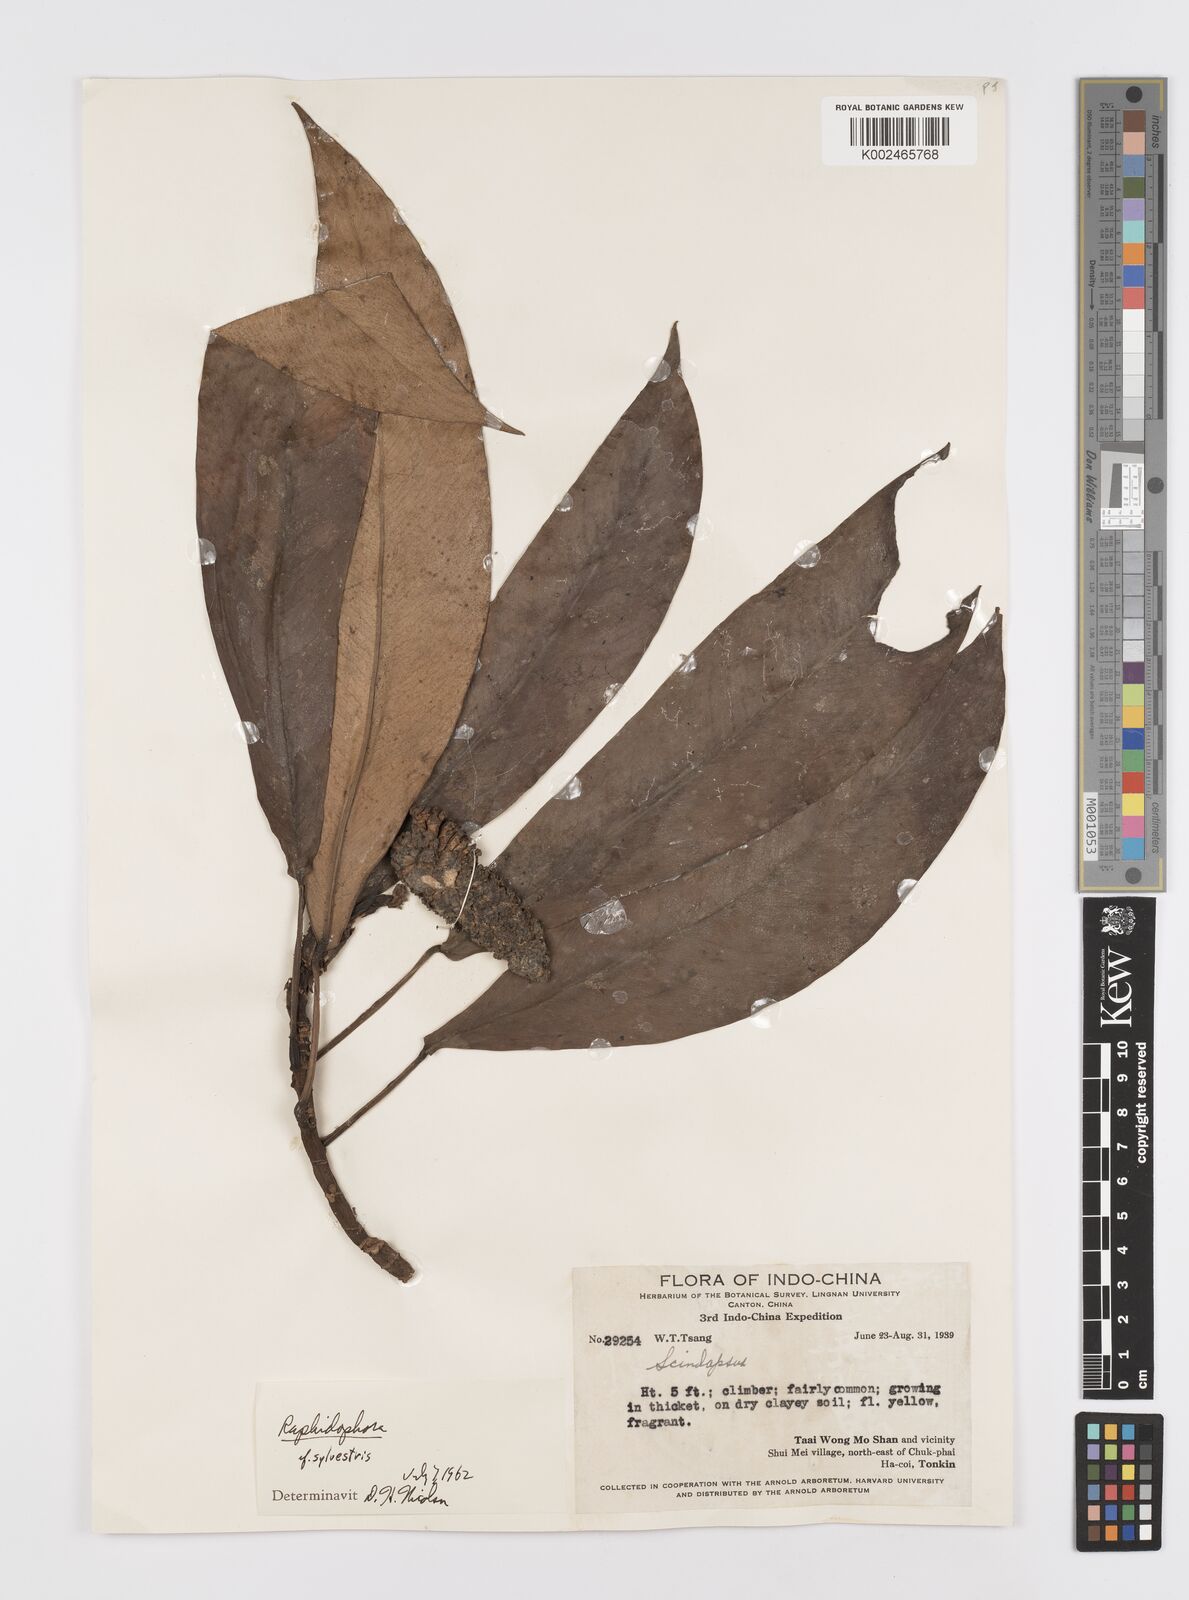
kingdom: Plantae
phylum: Tracheophyta
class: Liliopsida
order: Alismatales
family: Araceae
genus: Rhaphidophora
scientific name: Rhaphidophora
